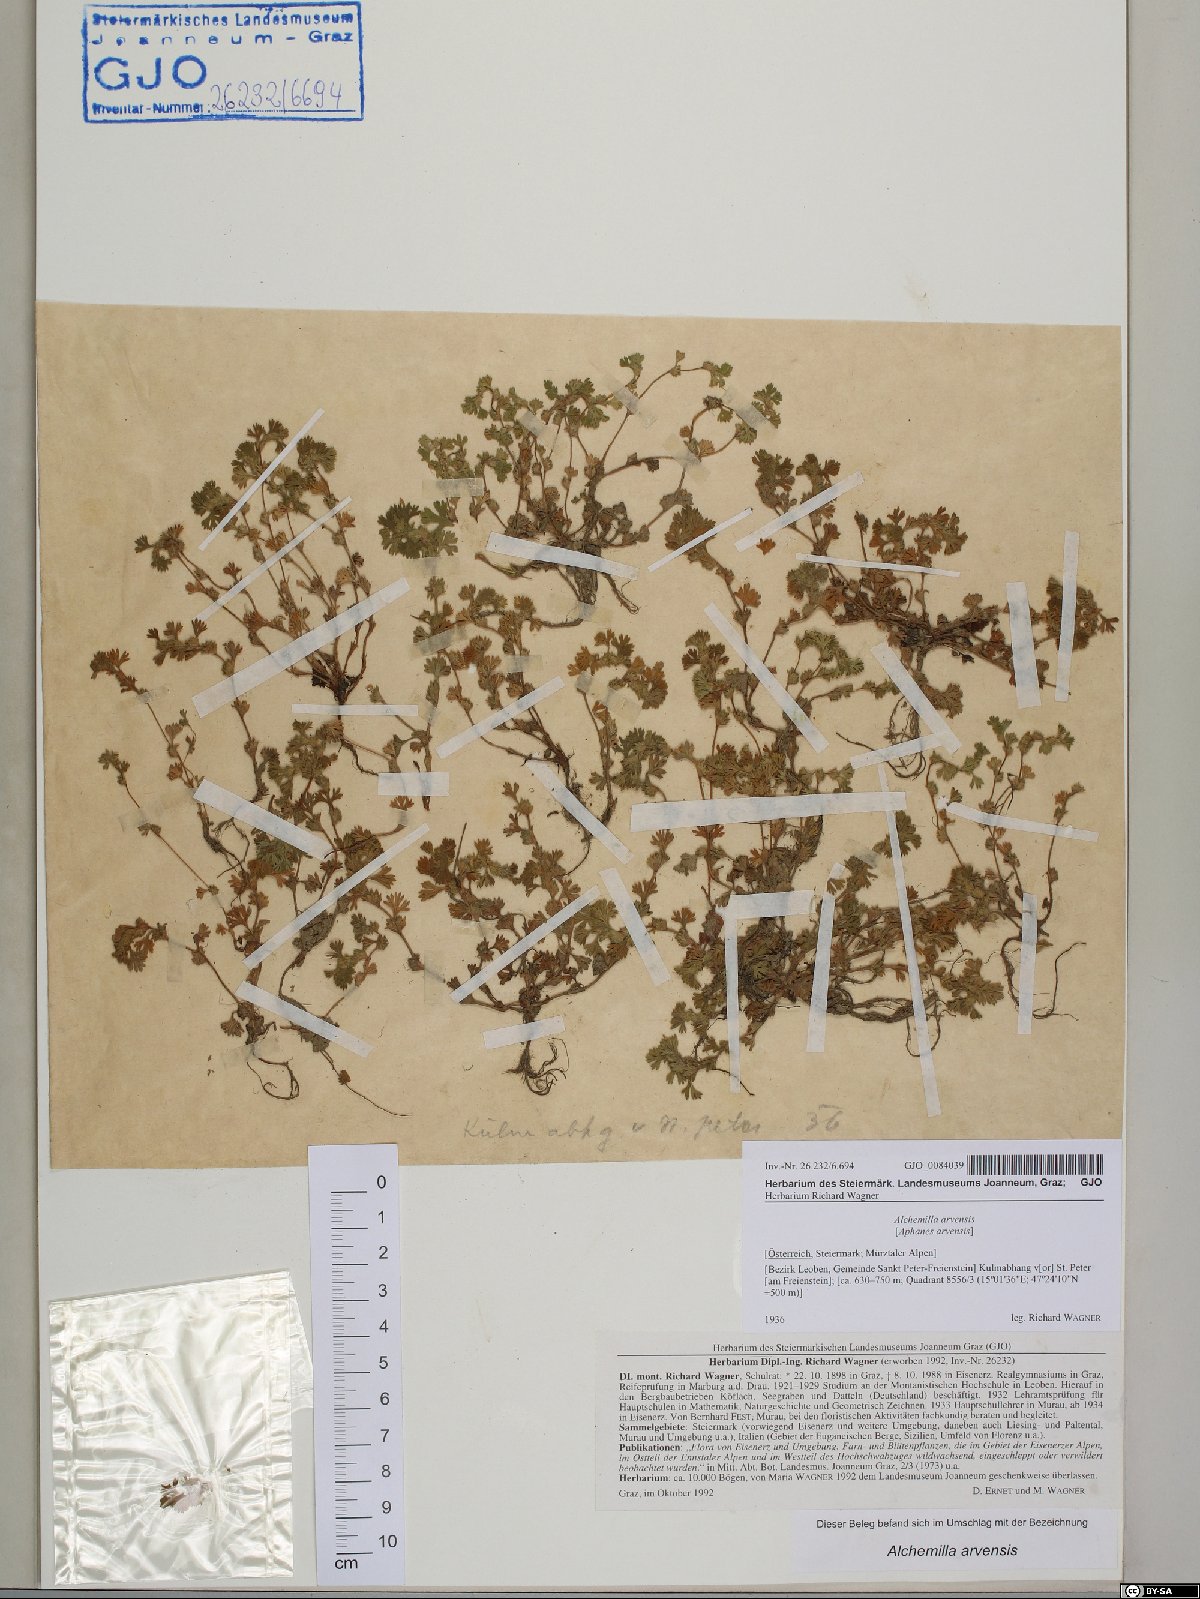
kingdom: Plantae
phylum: Tracheophyta
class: Magnoliopsida
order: Rosales
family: Rosaceae
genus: Aphanes
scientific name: Aphanes arvensis
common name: Parsley-piert
